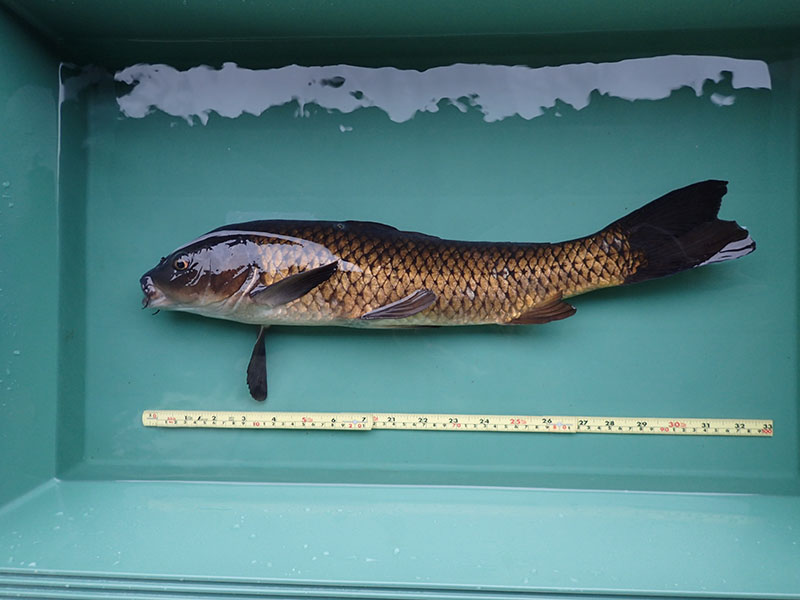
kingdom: Animalia
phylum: Chordata
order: Cypriniformes
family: Cyprinidae
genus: Cyprinus
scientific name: Cyprinus carpio
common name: コイ
